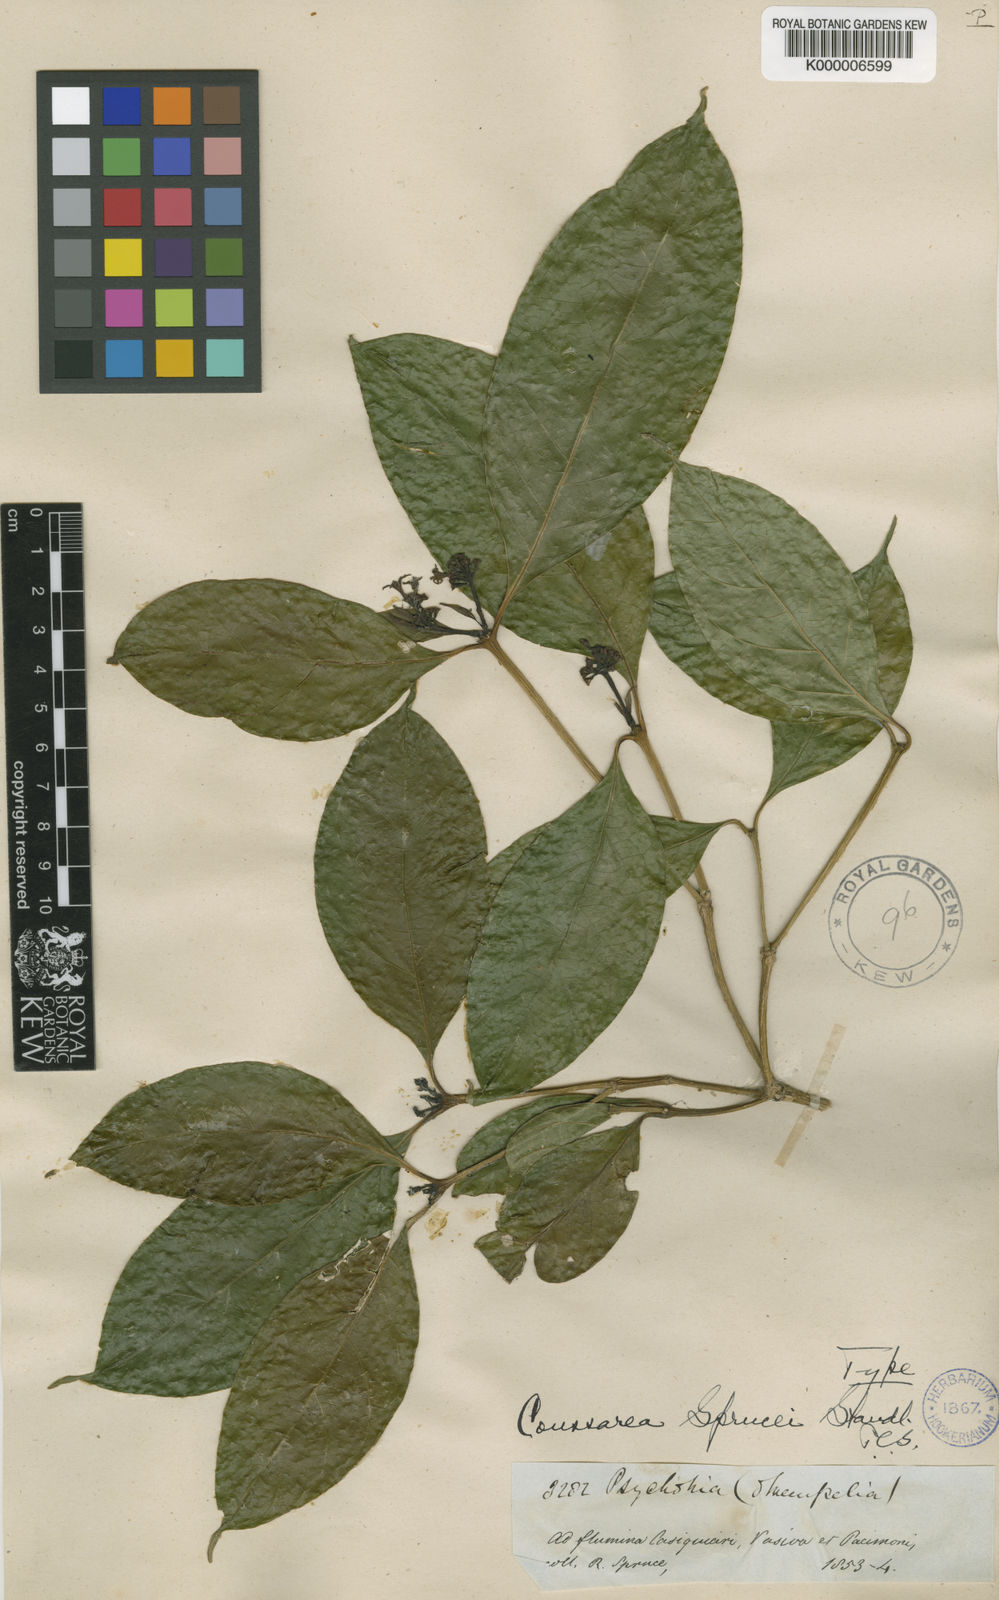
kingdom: Plantae
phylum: Tracheophyta
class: Magnoliopsida
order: Gentianales
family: Rubiaceae
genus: Coussarea
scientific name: Coussarea violacea
